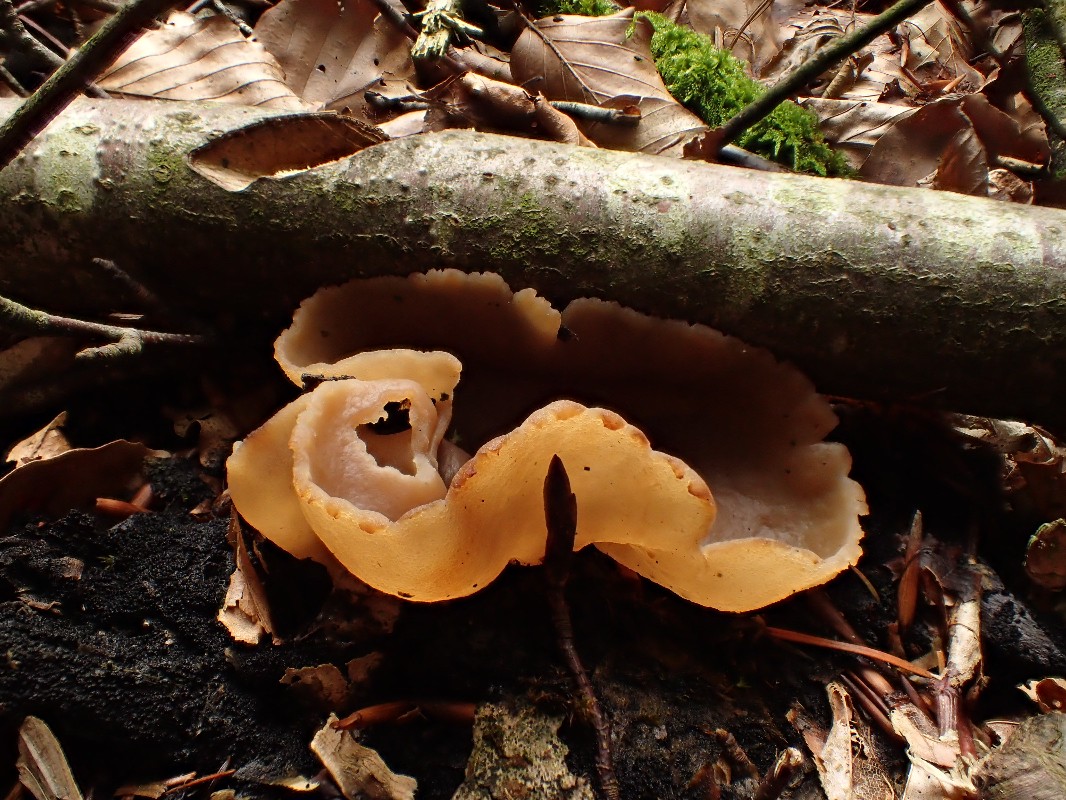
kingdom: Fungi
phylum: Ascomycota
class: Pezizomycetes
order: Pezizales
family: Pezizaceae
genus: Peziza
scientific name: Peziza
